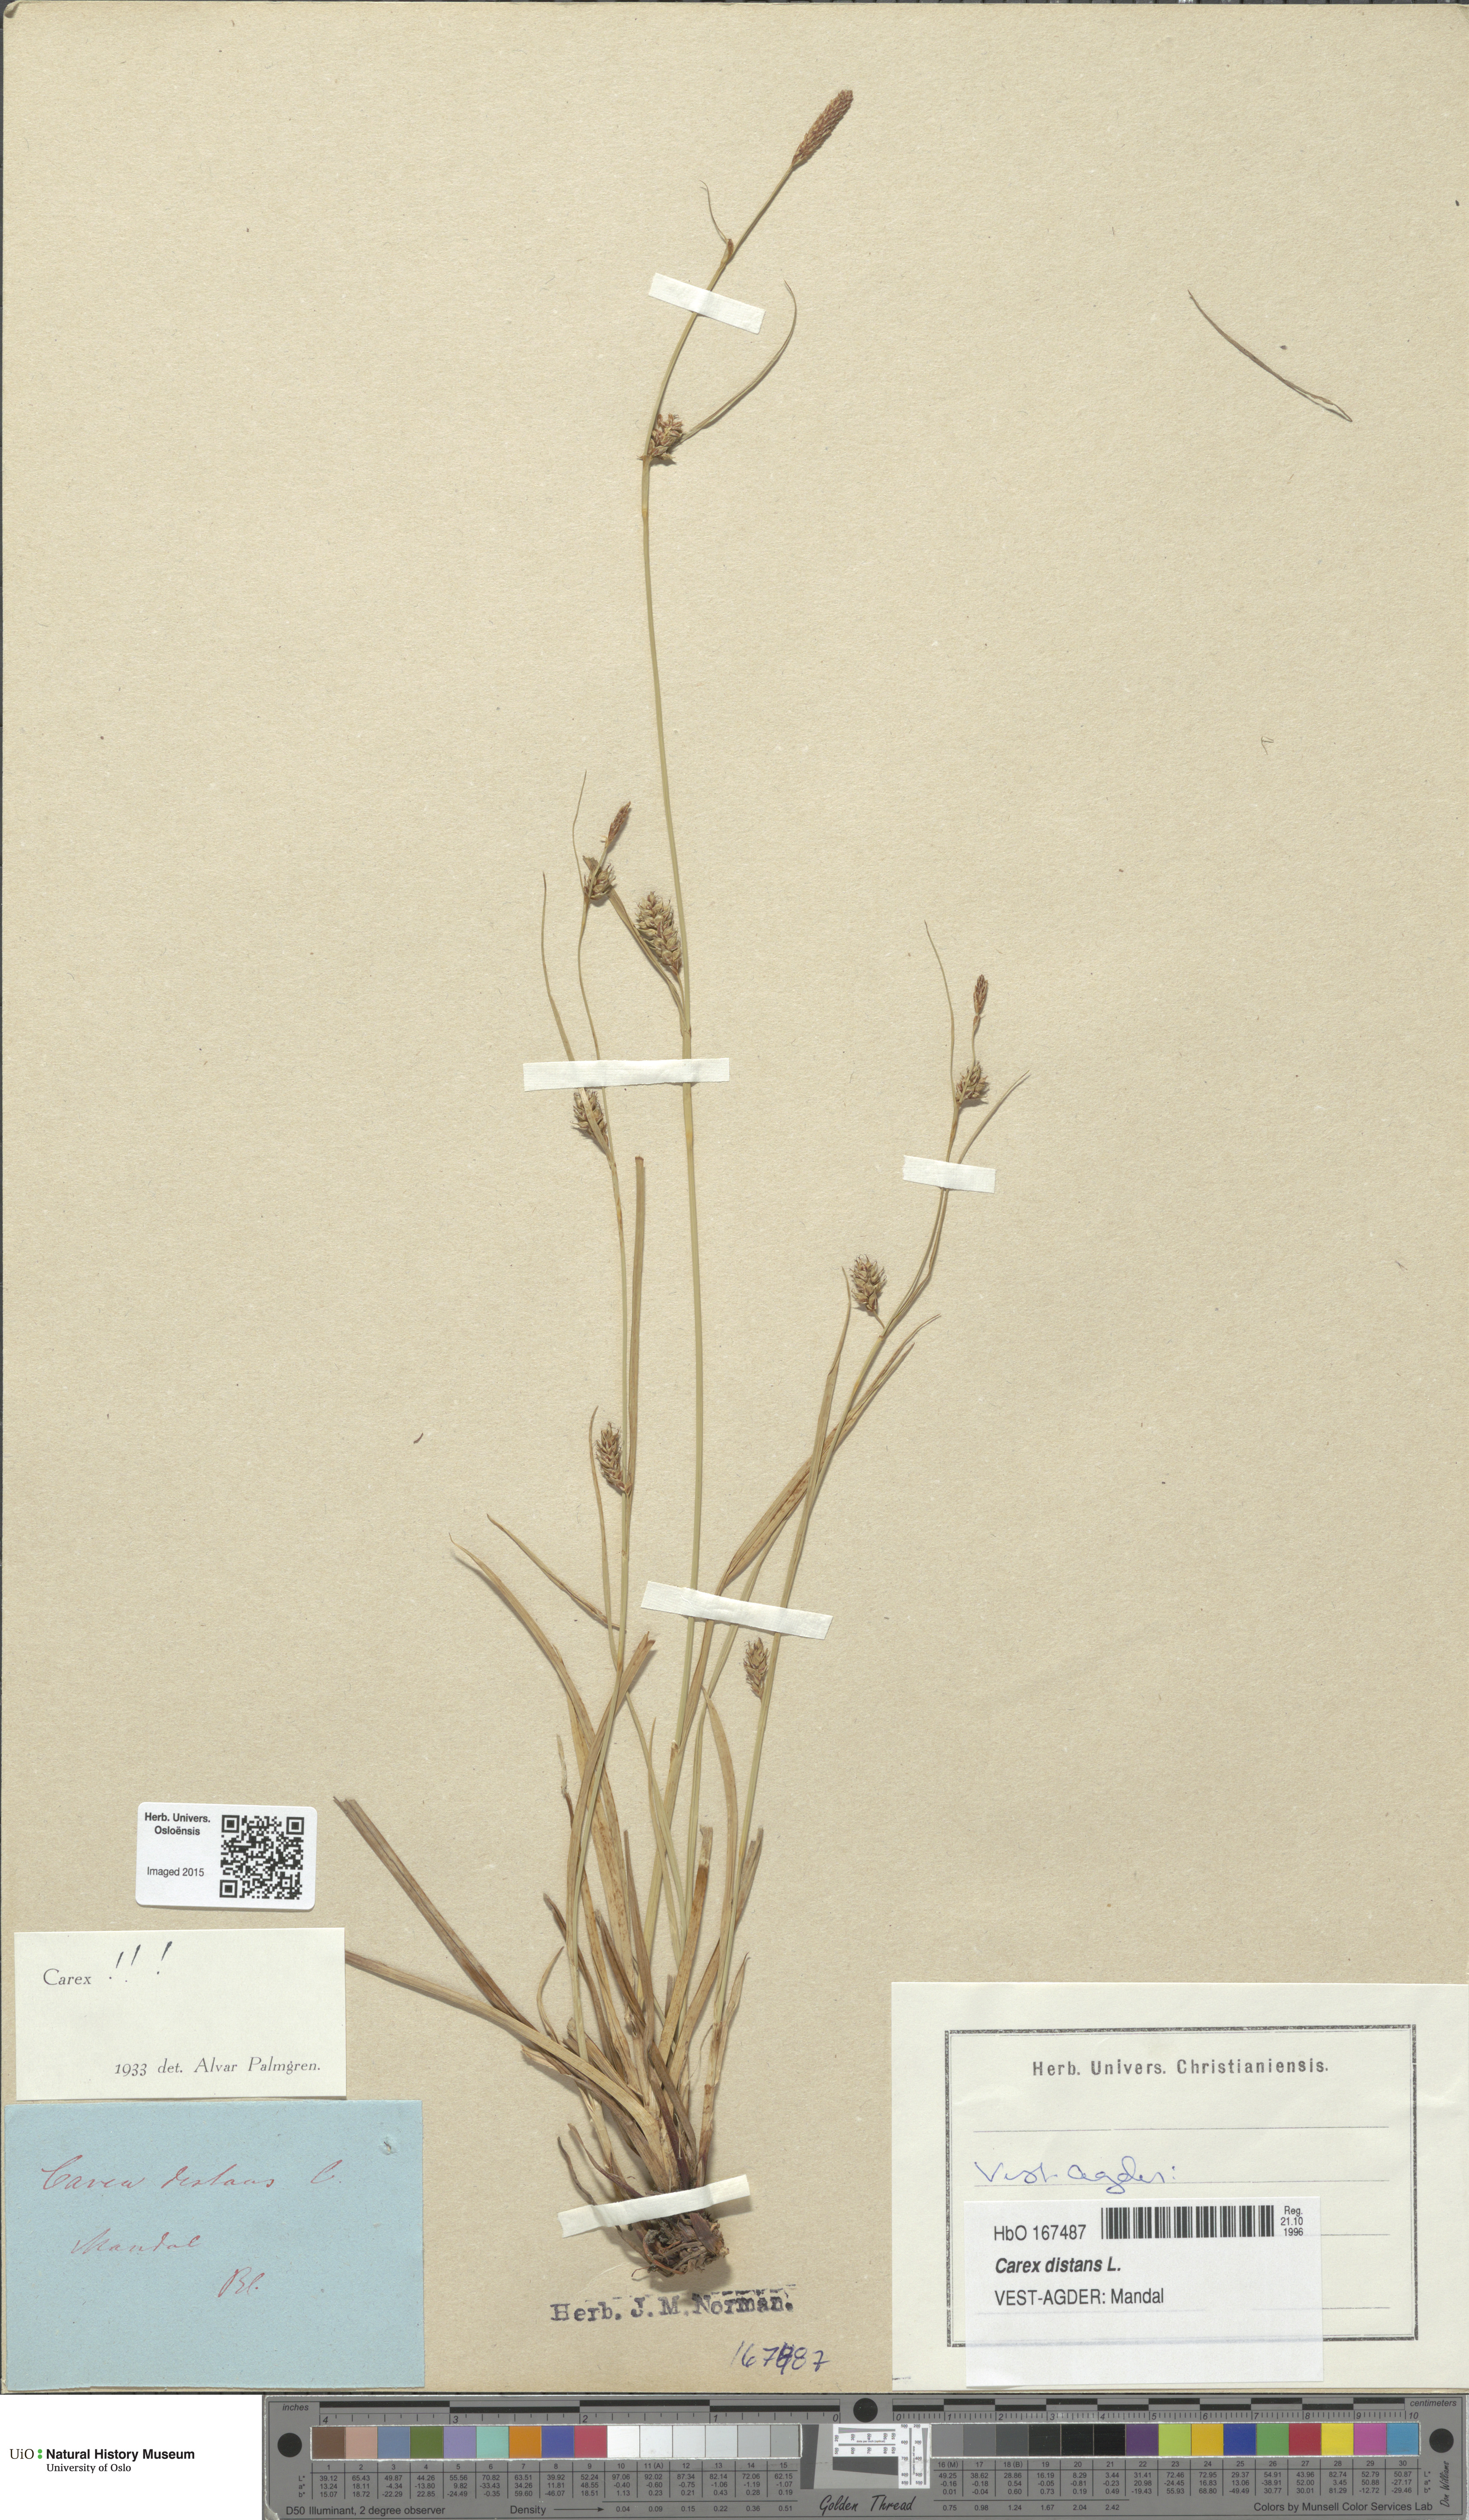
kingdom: Plantae
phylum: Tracheophyta
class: Liliopsida
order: Poales
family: Cyperaceae
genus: Carex
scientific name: Carex distans
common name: Distant sedge
